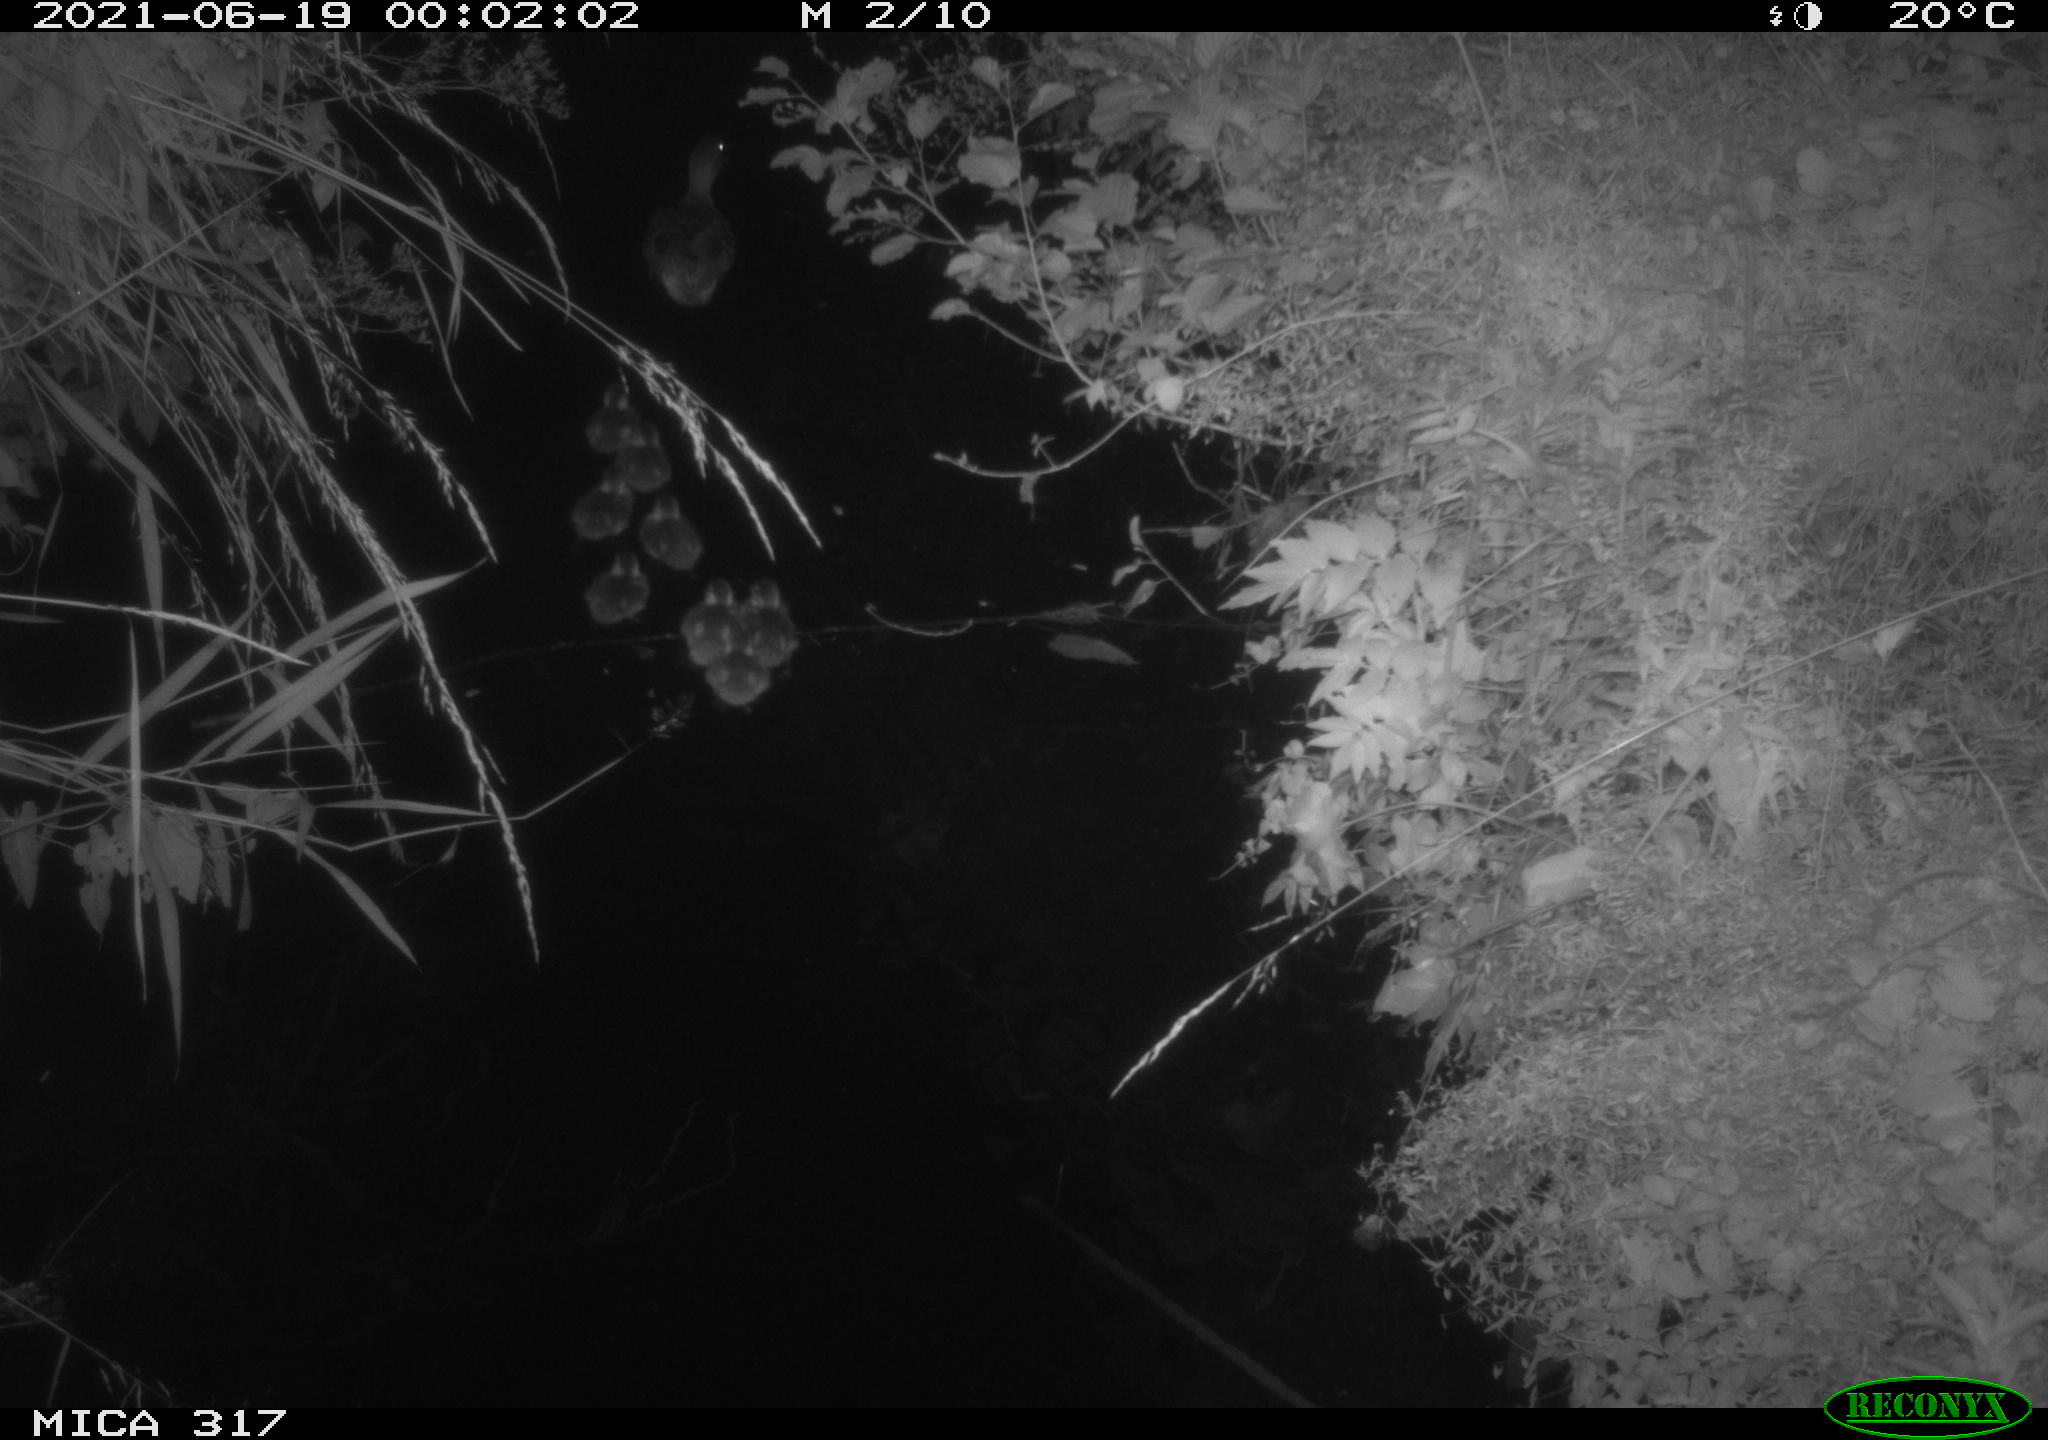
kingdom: Animalia
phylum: Chordata
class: Aves
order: Anseriformes
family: Anatidae
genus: Anas
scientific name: Anas platyrhynchos
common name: Mallard
